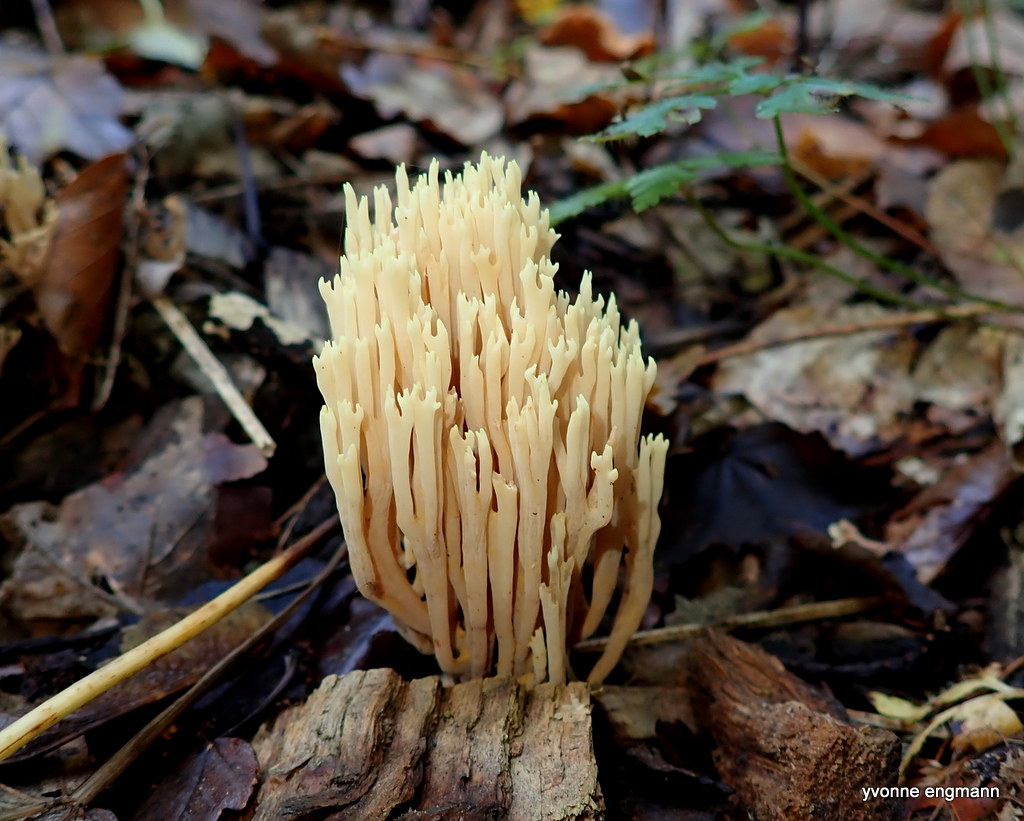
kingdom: Fungi
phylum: Basidiomycota
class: Agaricomycetes
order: Gomphales
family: Gomphaceae
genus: Ramaria
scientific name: Ramaria stricta
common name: rank koralsvamp
